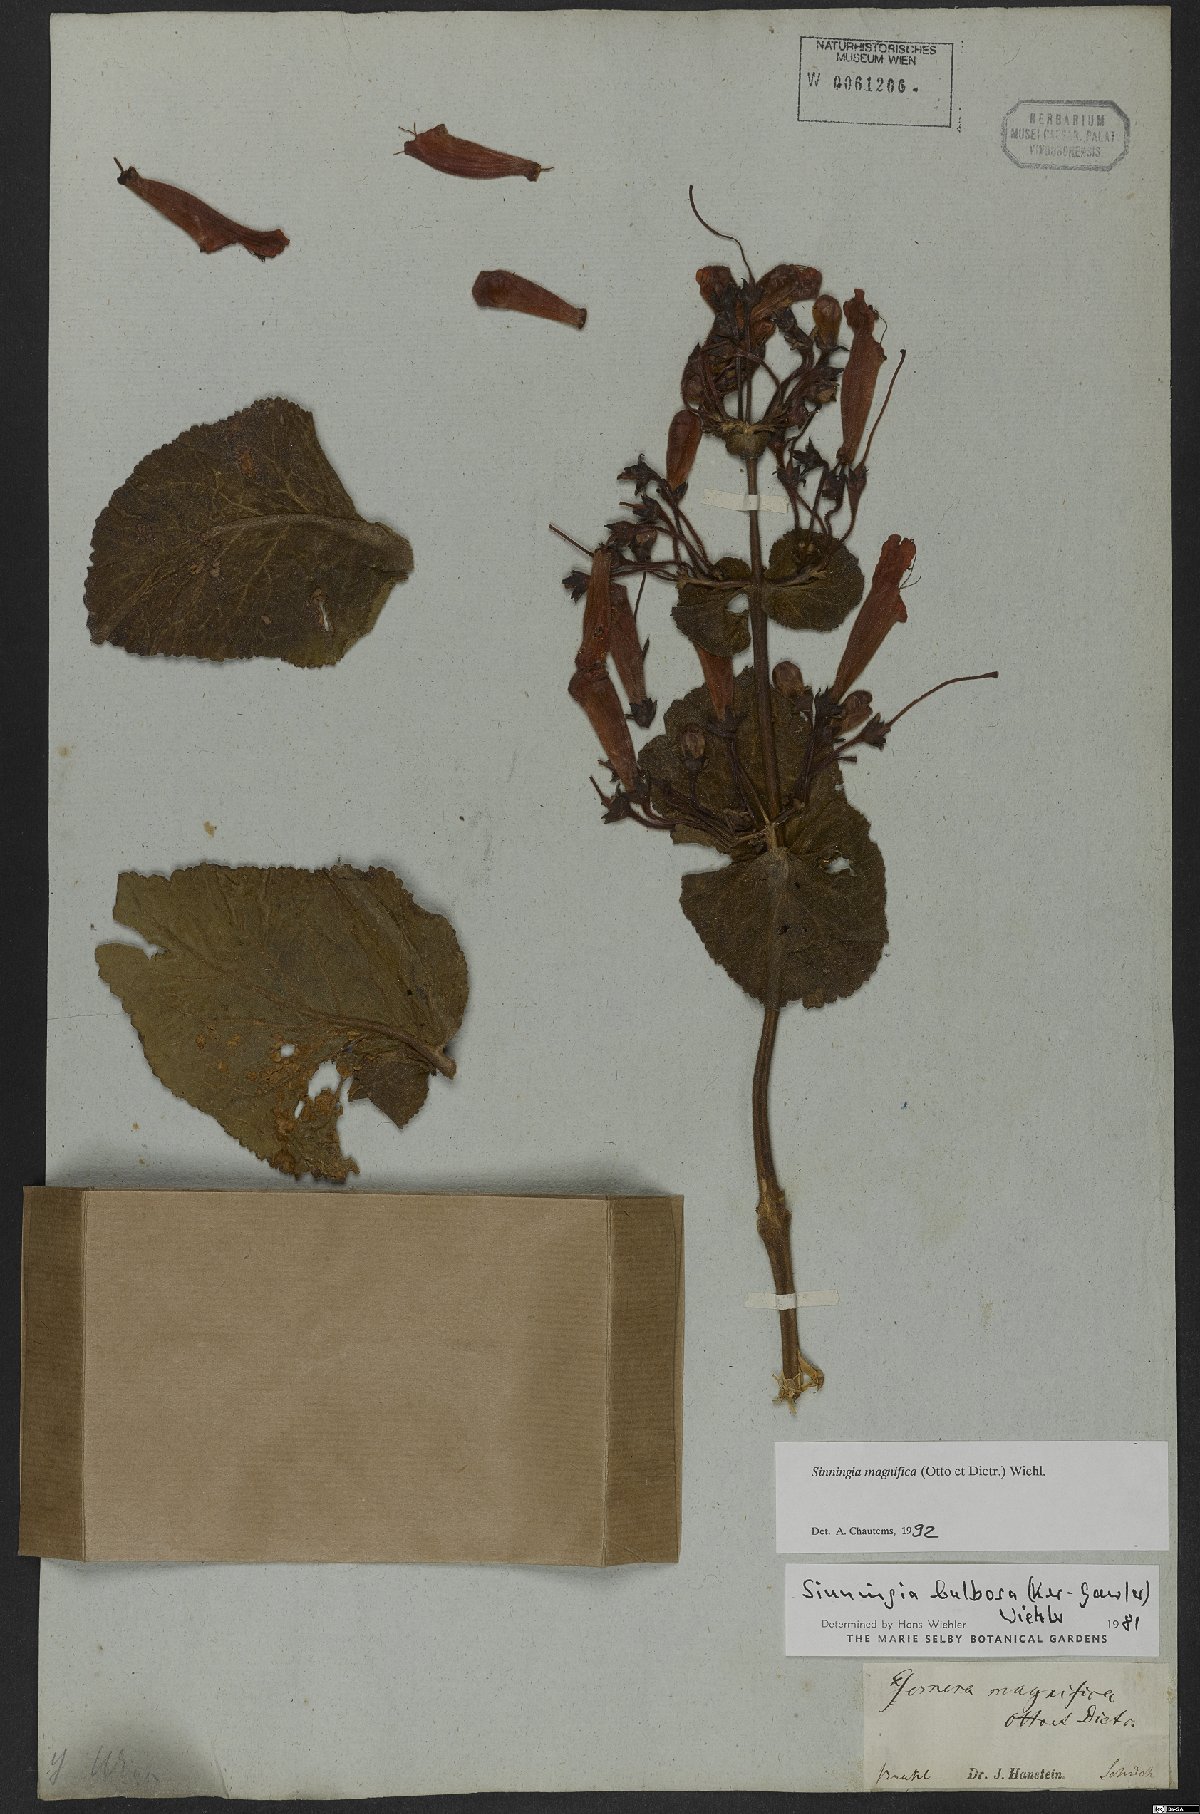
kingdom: Plantae
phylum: Tracheophyta
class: Magnoliopsida
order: Lamiales
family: Gesneriaceae
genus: Sinningia
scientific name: Sinningia magnifica
